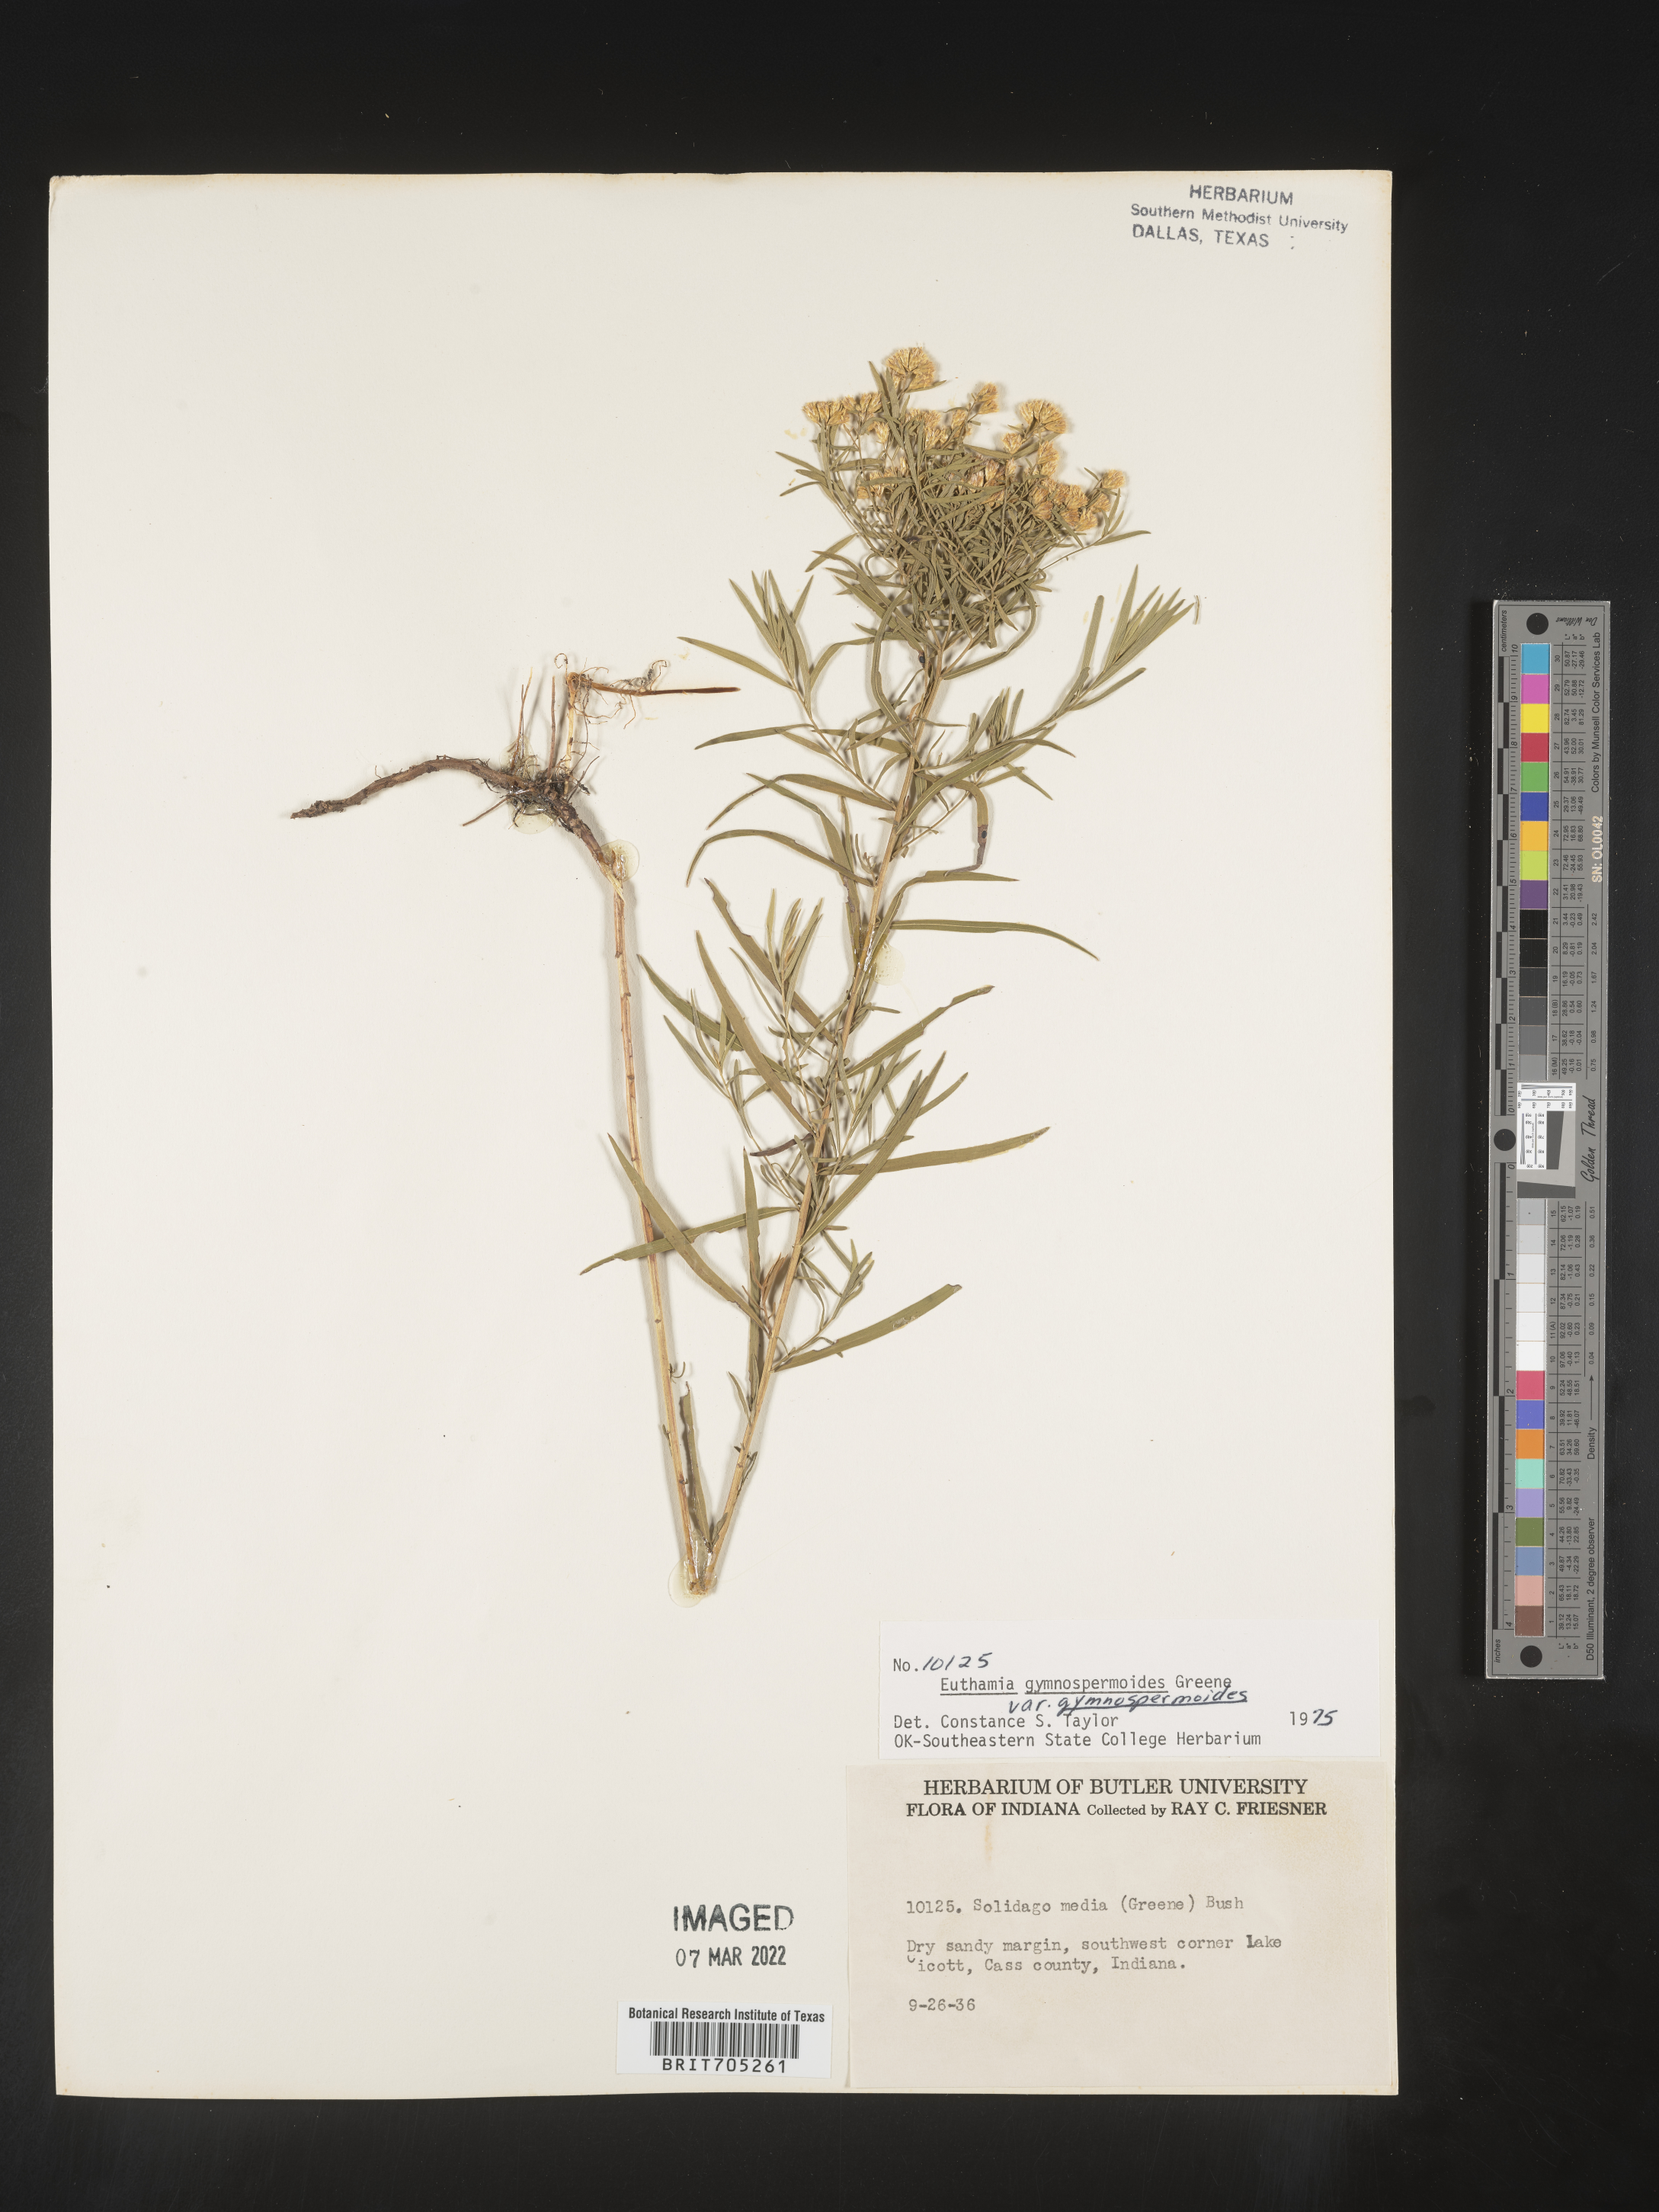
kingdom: Plantae
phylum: Tracheophyta
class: Magnoliopsida
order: Asterales
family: Asteraceae
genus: Euthamia
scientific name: Euthamia gymnospermoides
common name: Great plains goldentop
